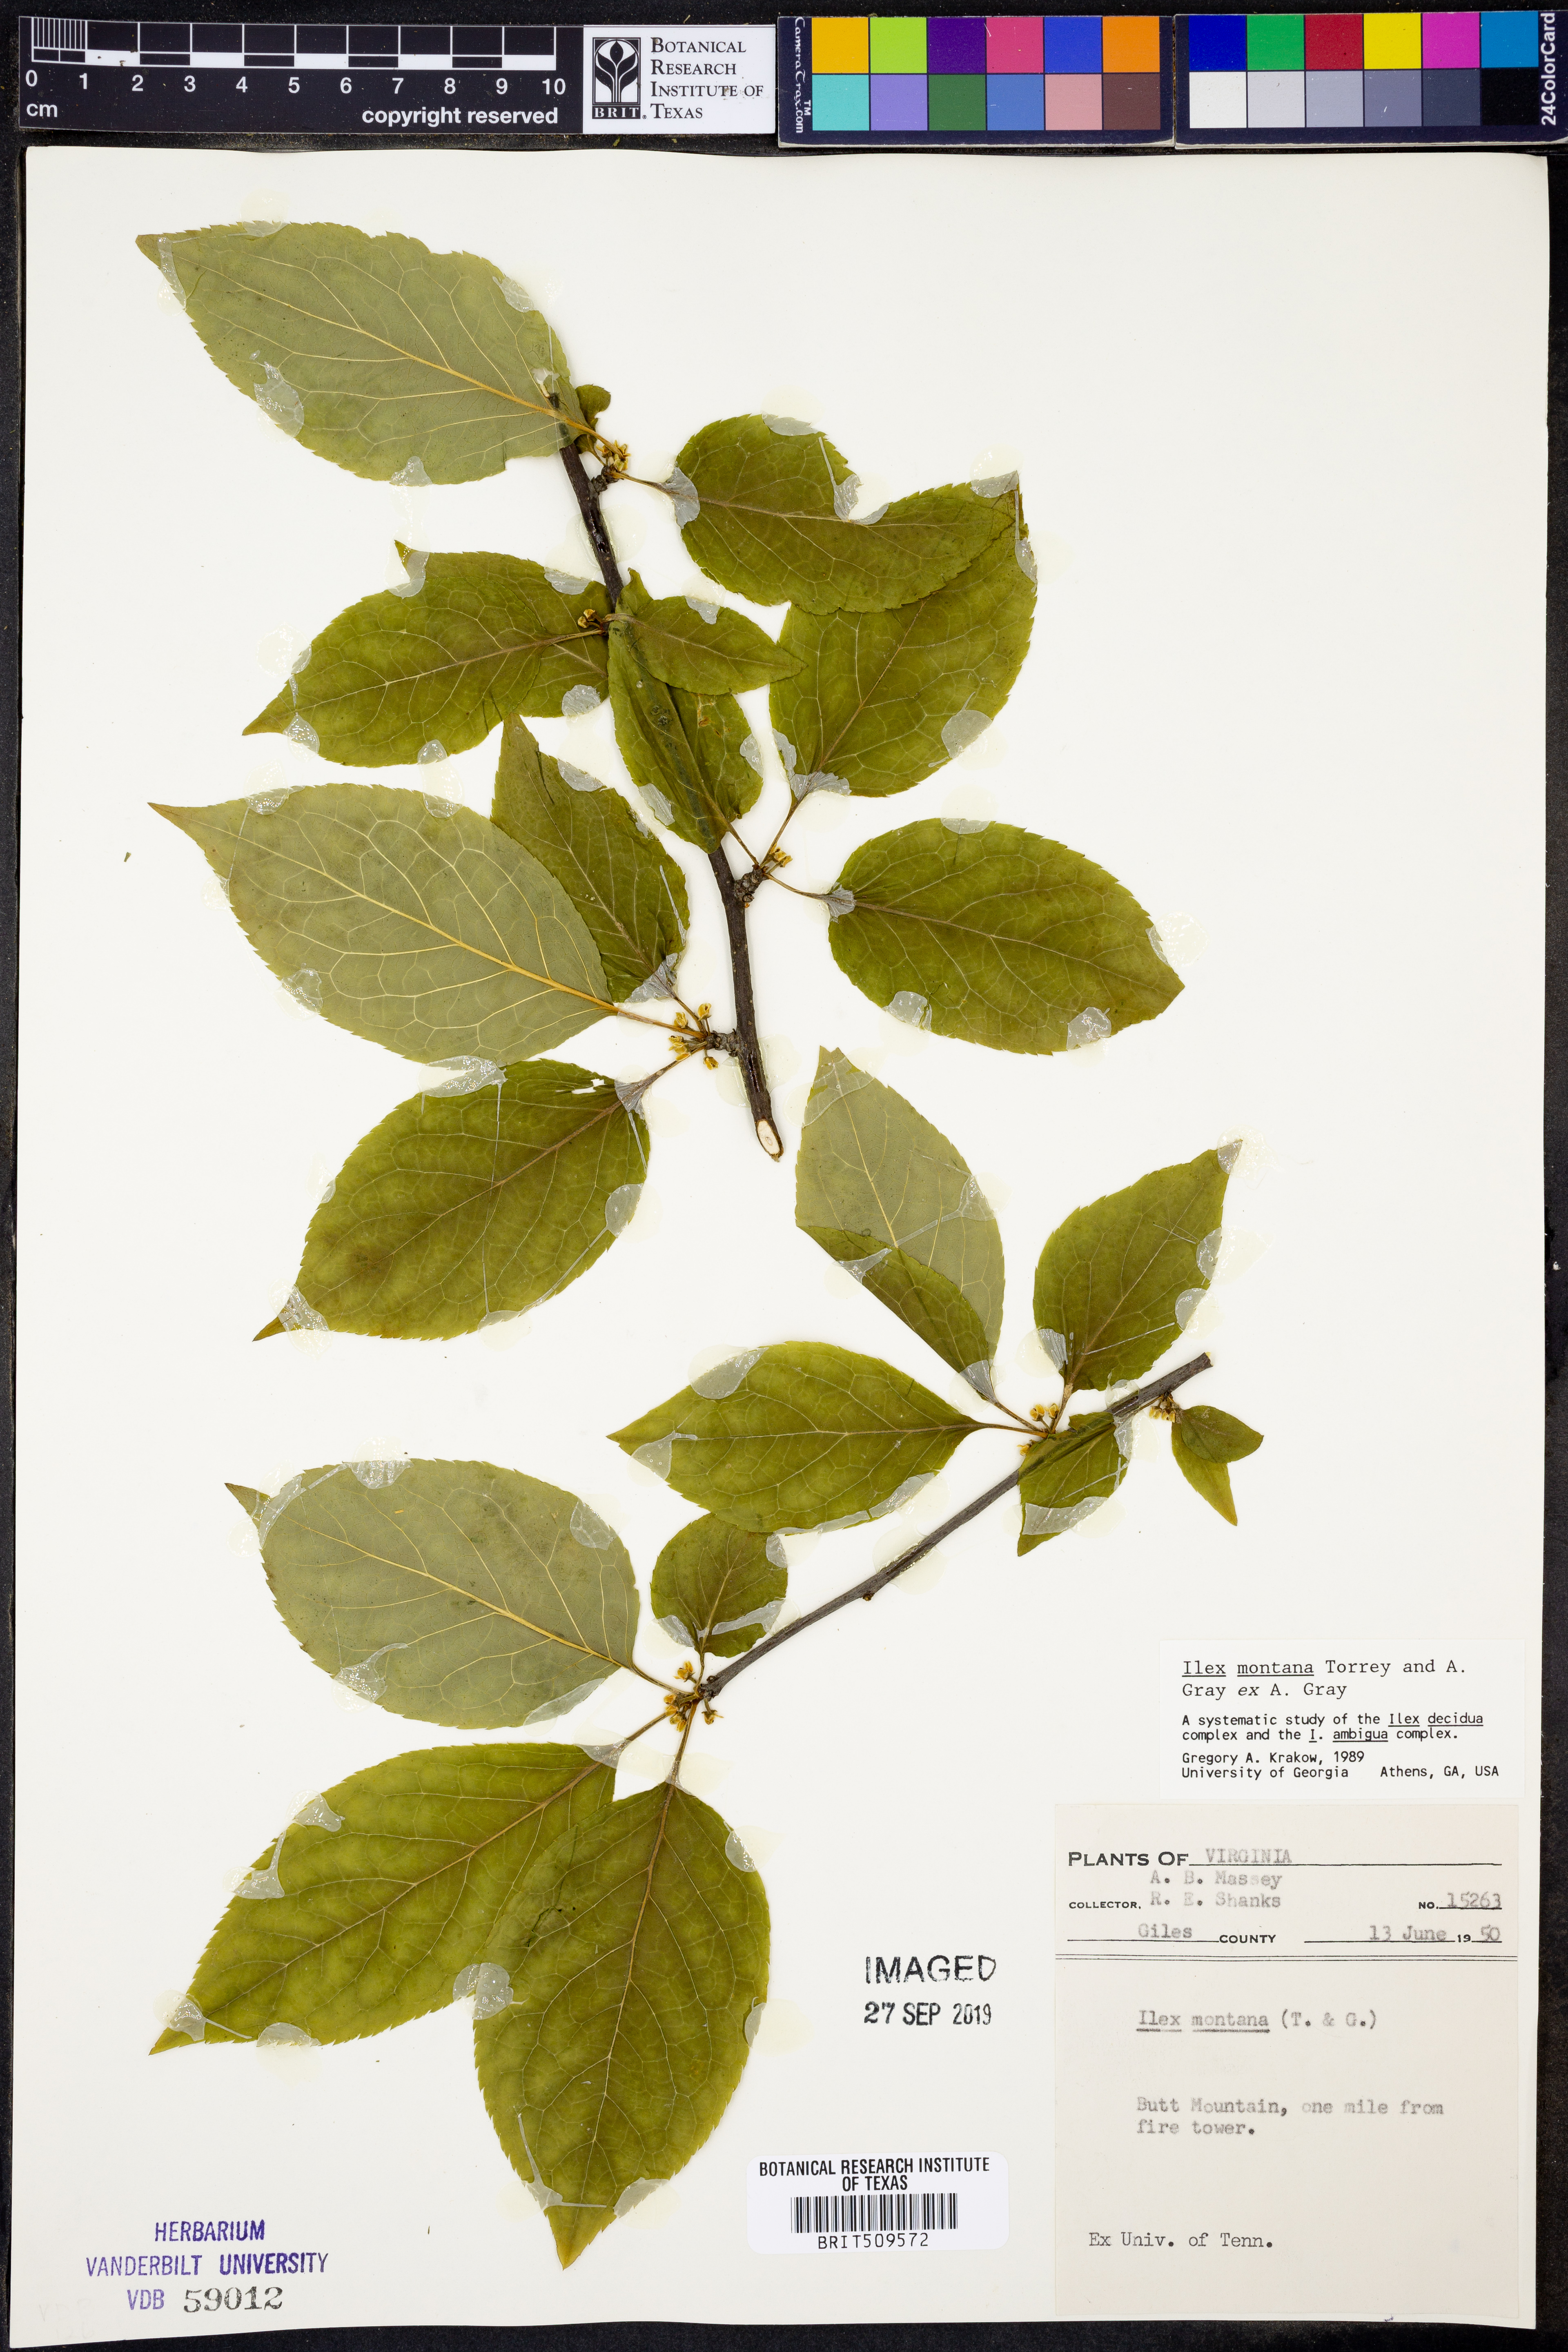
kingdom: Plantae
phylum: Tracheophyta
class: Magnoliopsida
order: Aquifoliales
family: Aquifoliaceae
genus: Ilex
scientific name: Ilex montana
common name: Mountain winterberry
